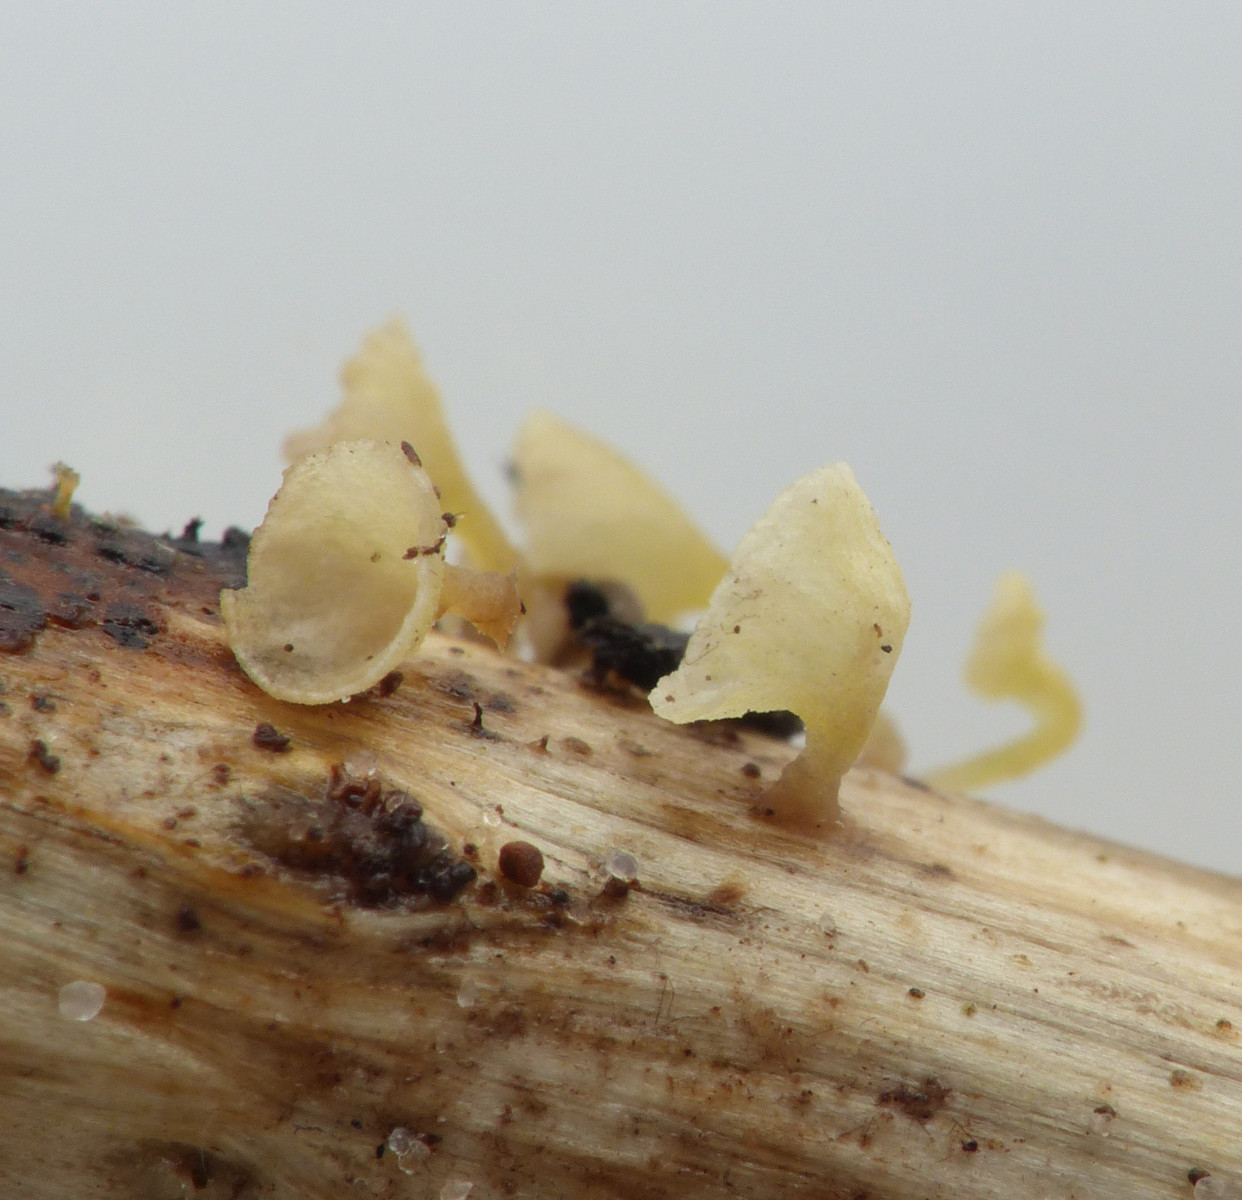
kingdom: Fungi
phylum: Basidiomycota
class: Agaricomycetes
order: Agaricales
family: Marasmiaceae
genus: Calyptella
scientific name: Calyptella campanula
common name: gul nældehue
